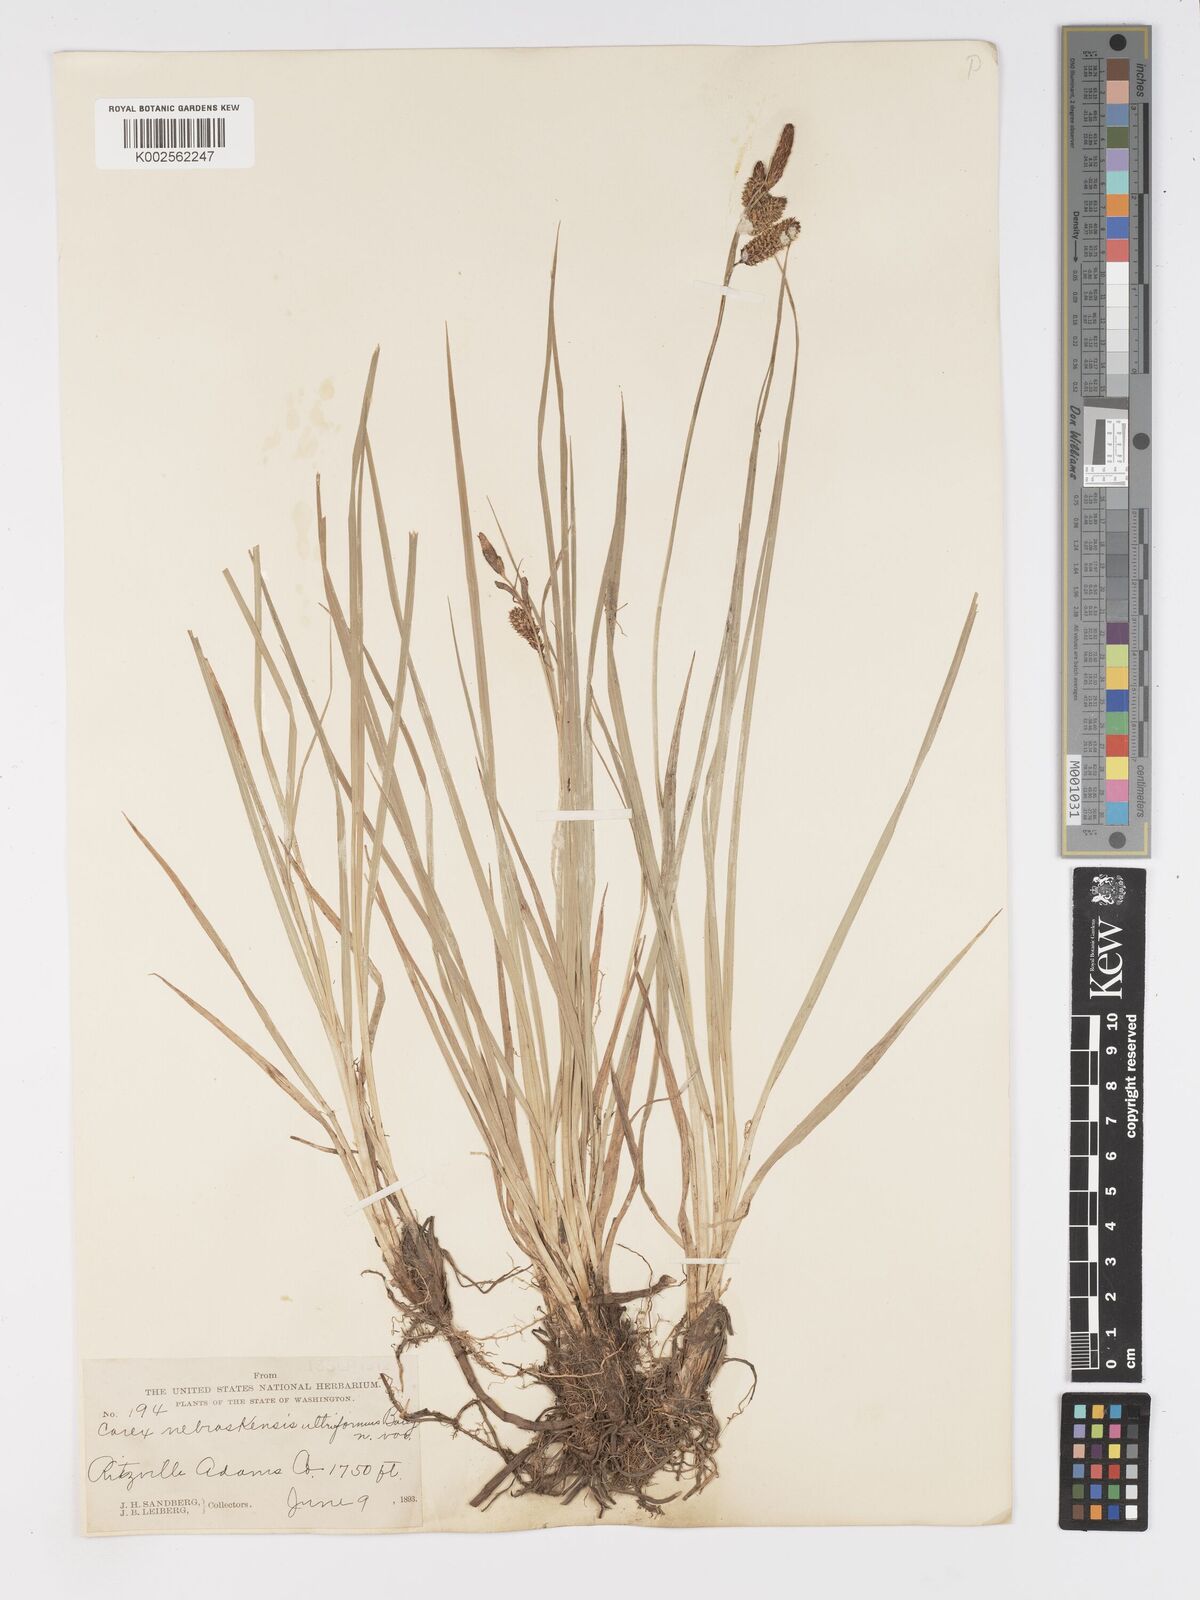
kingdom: Plantae
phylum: Tracheophyta
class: Liliopsida
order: Poales
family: Cyperaceae
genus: Carex
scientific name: Carex nebrascensis
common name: Nebraska sedge
